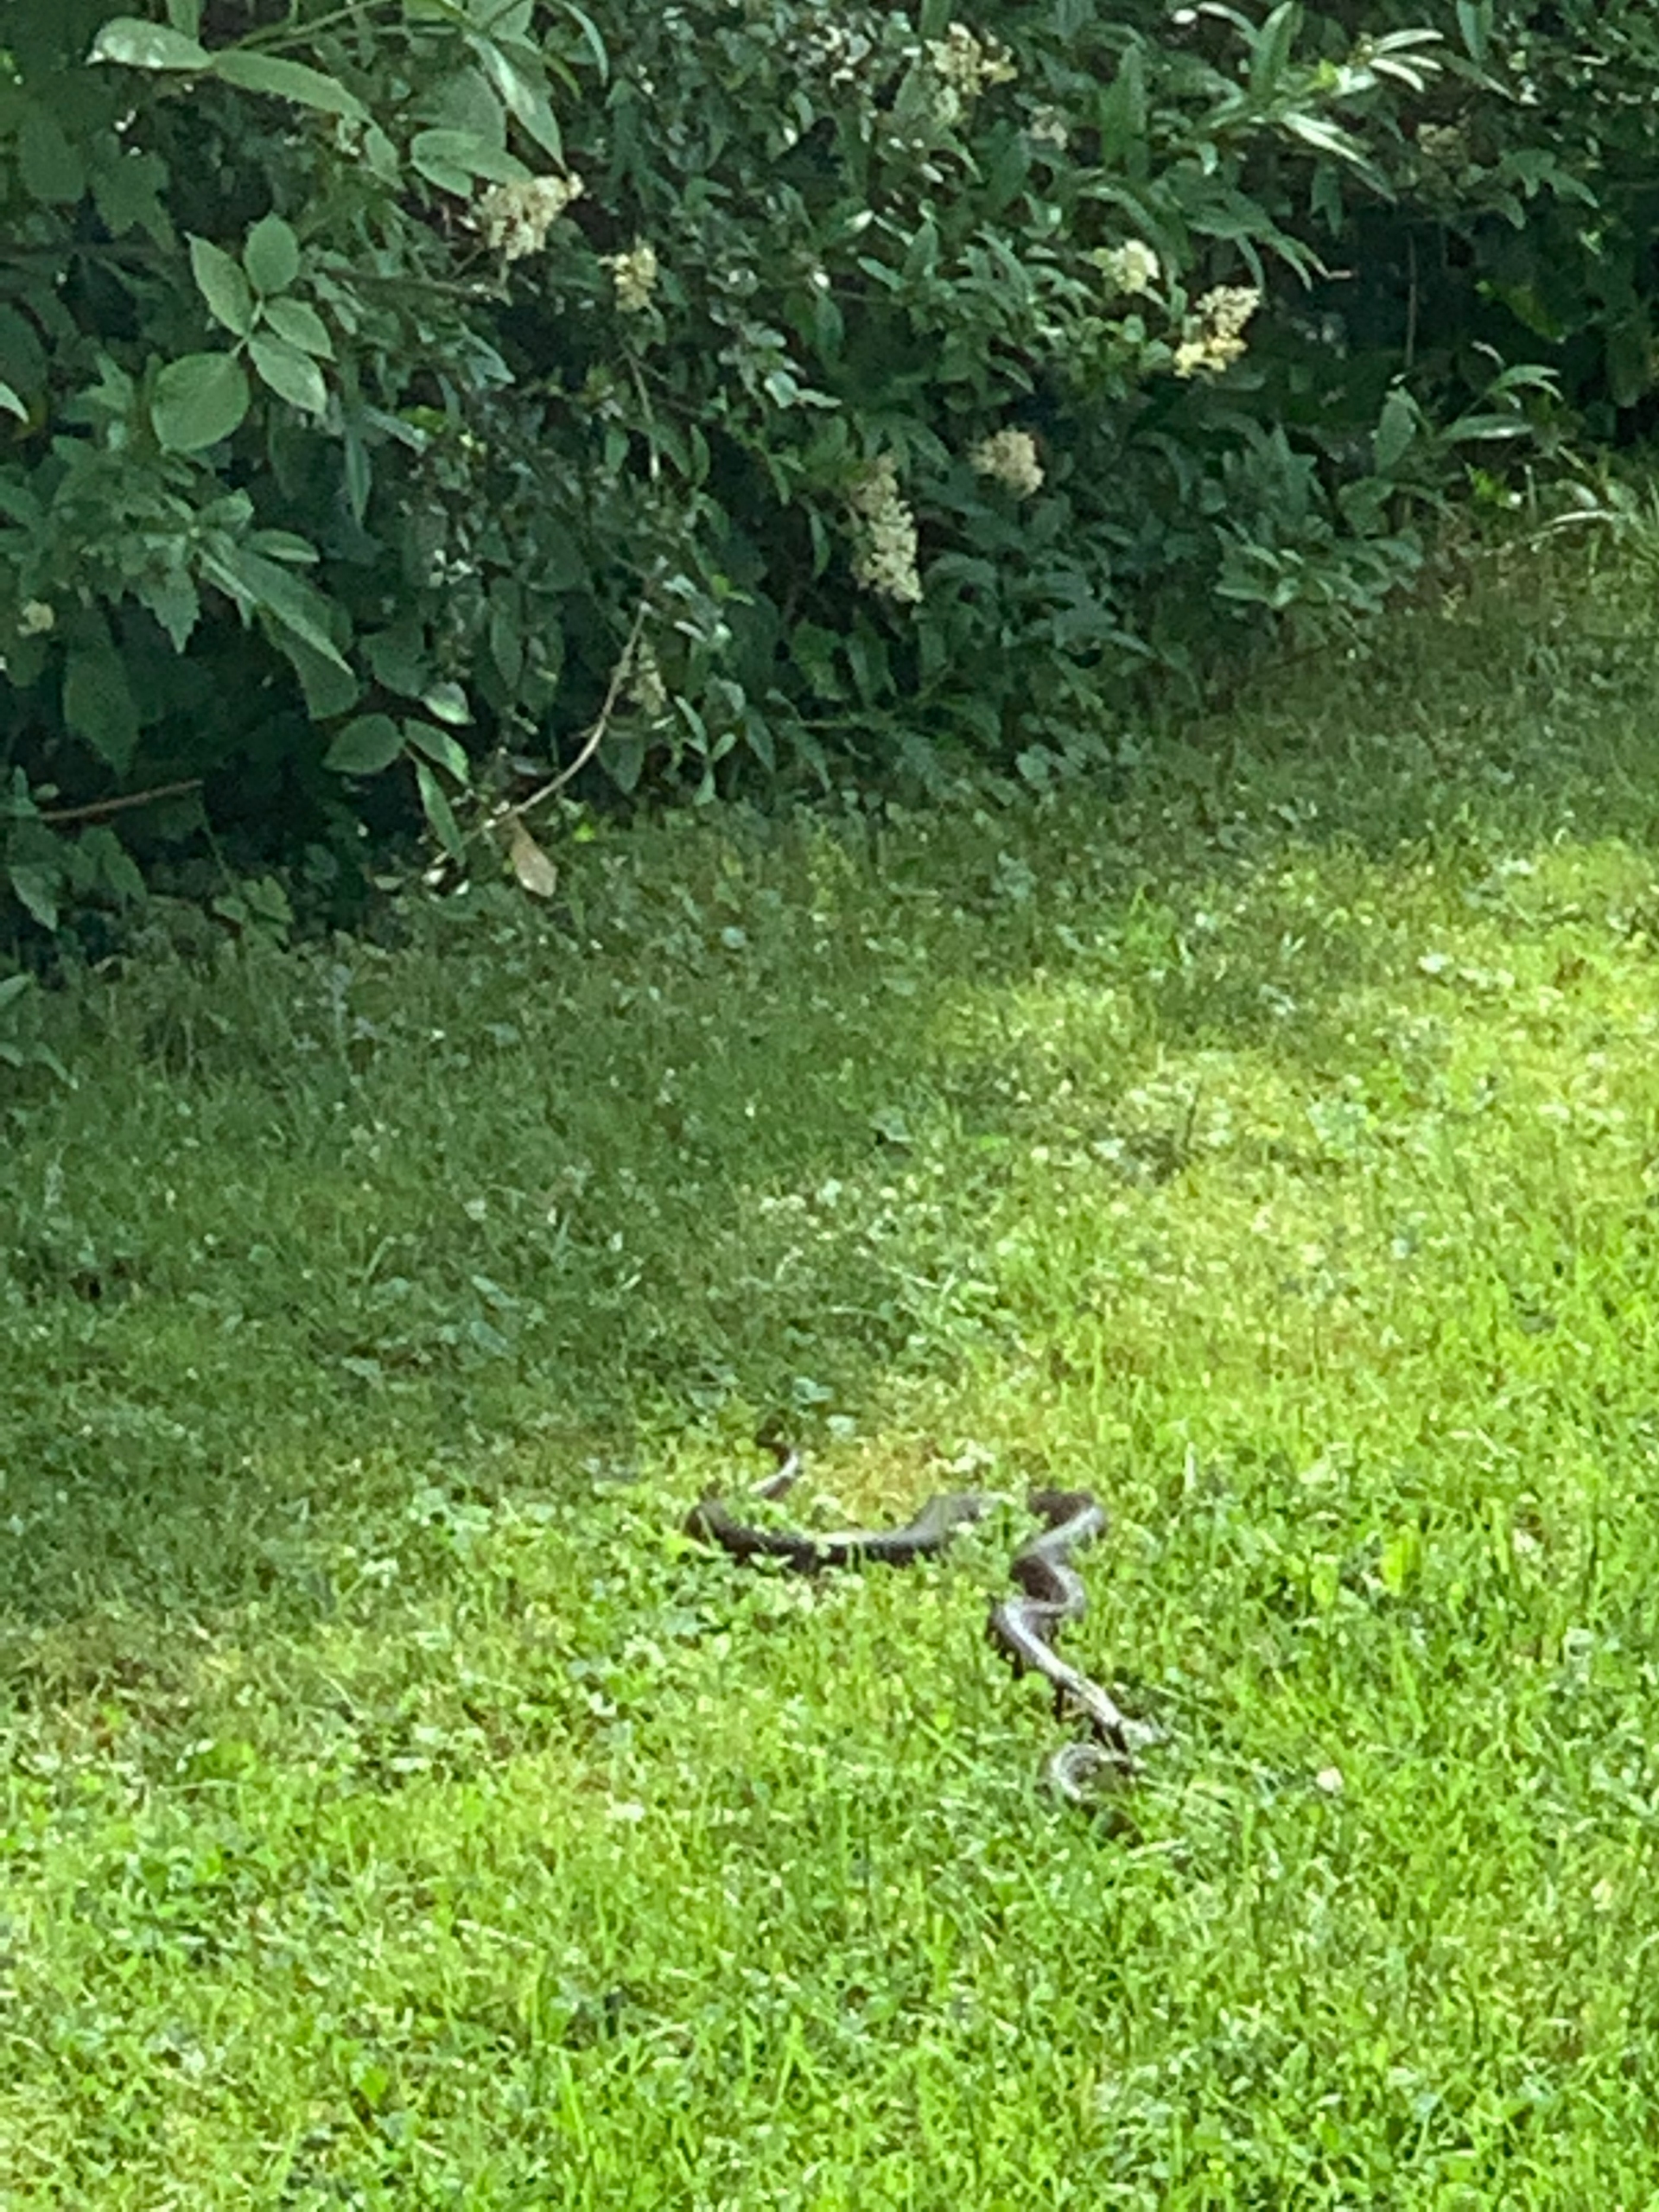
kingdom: Animalia
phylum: Chordata
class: Squamata
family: Colubridae
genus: Natrix
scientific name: Natrix natrix
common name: Snog
